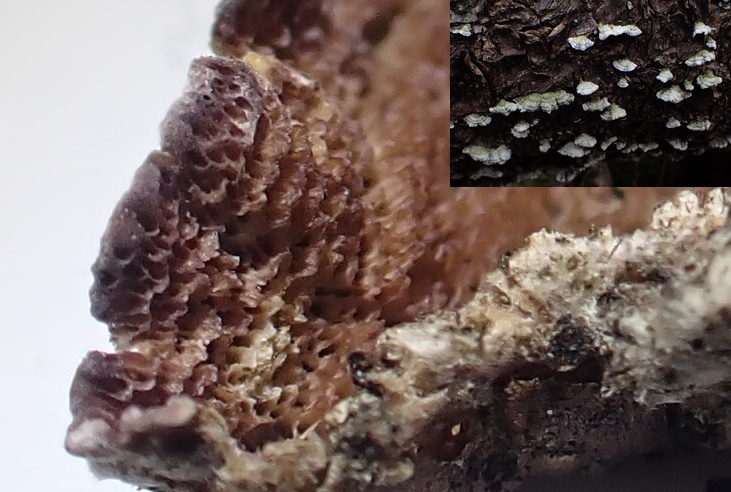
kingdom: Fungi
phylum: Basidiomycota
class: Agaricomycetes
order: Hymenochaetales
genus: Trichaptum
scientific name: Trichaptum fuscoviolaceum
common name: tandet violporesvamp
